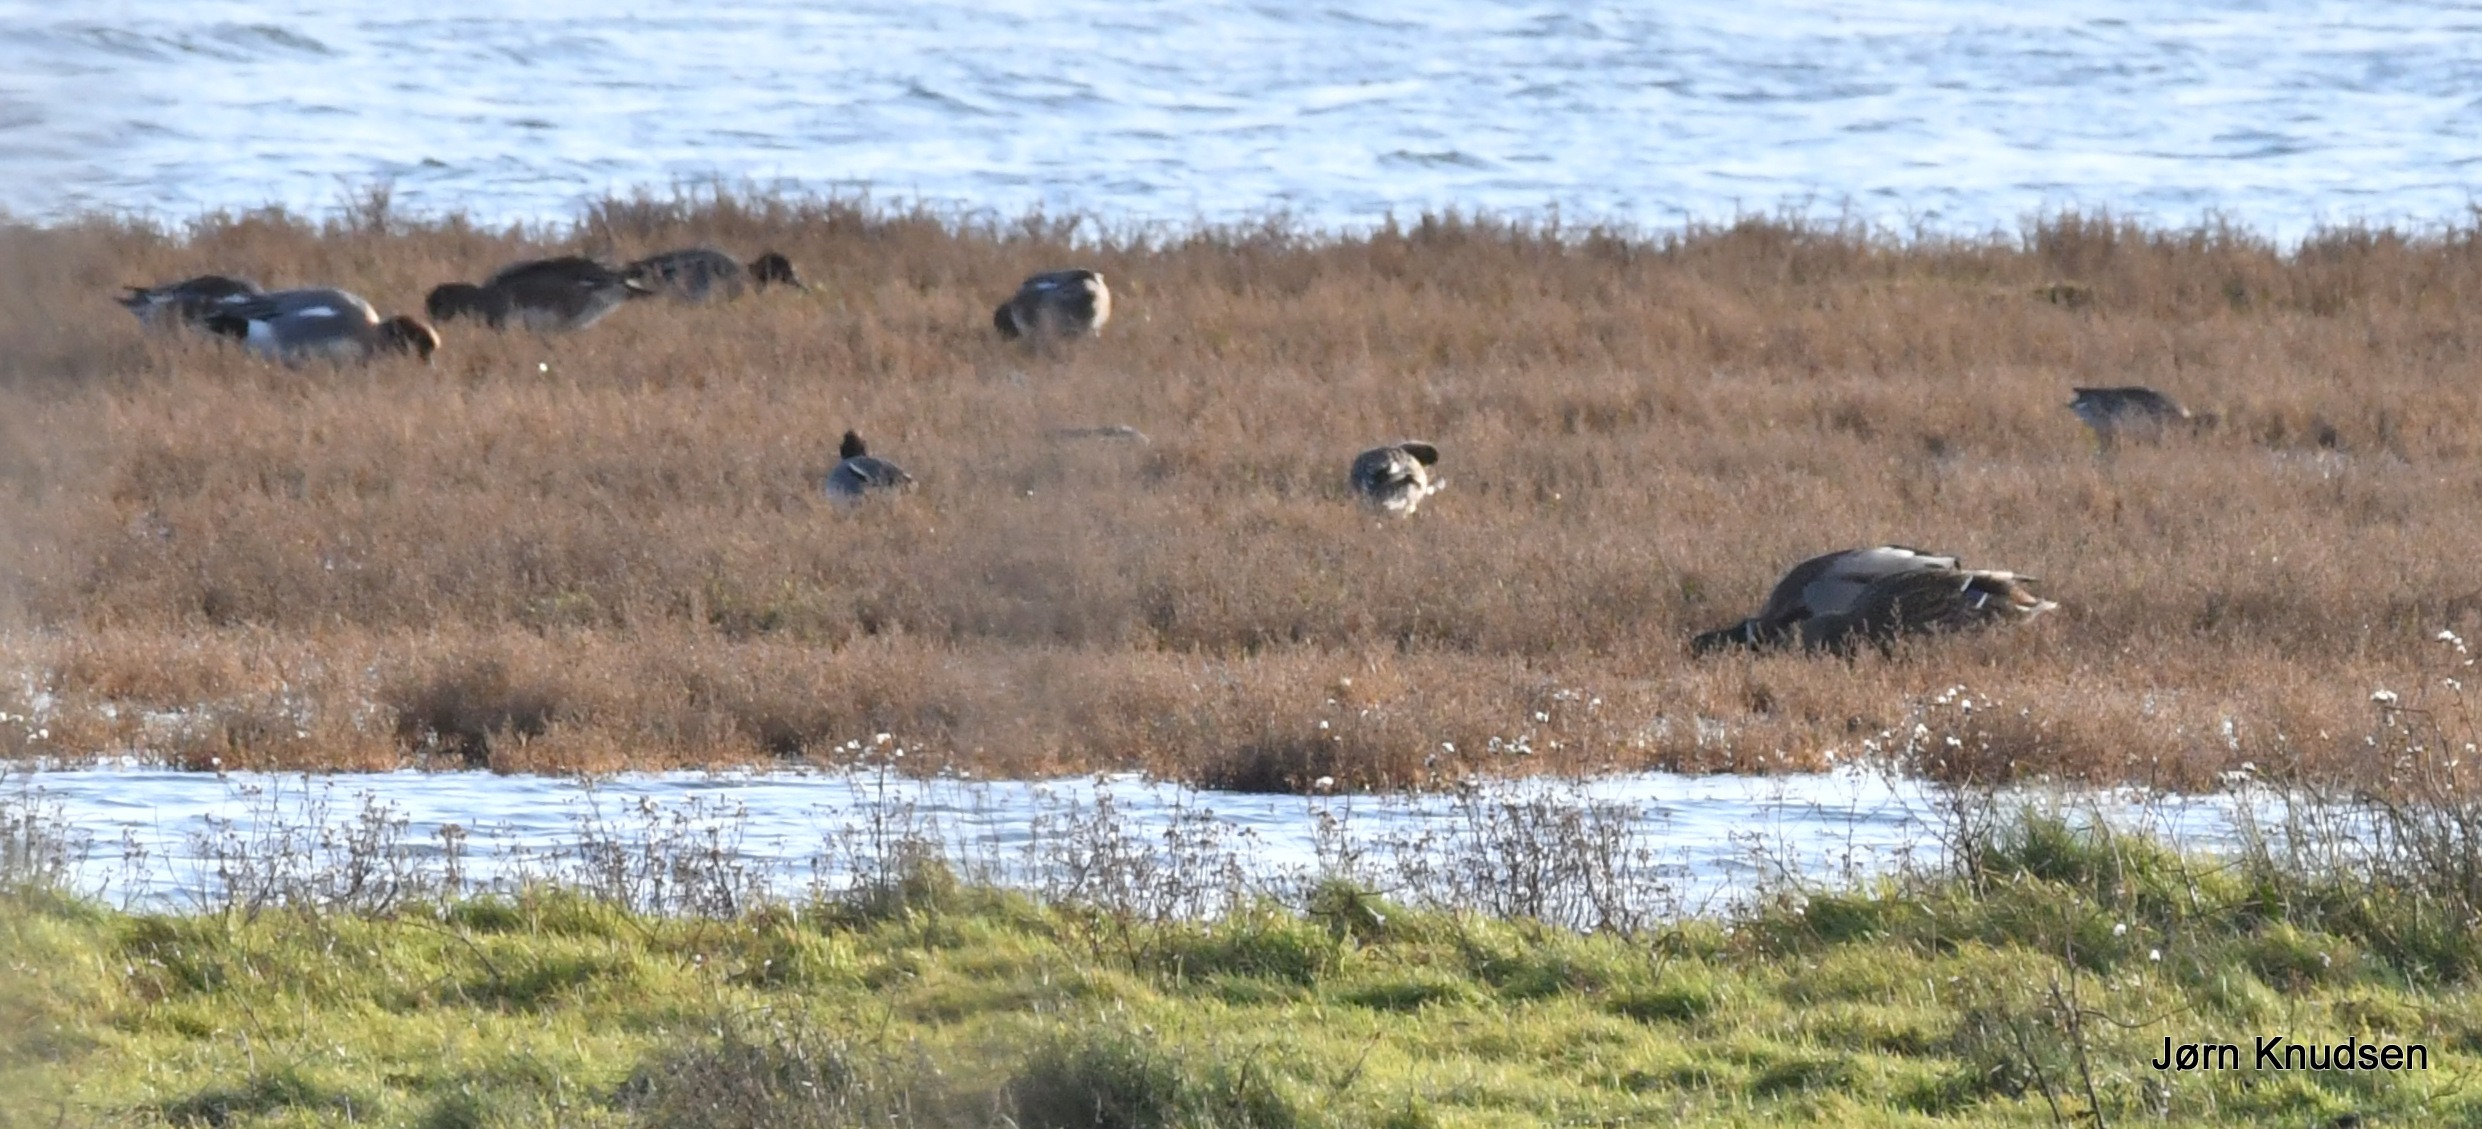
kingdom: Animalia
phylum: Chordata
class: Aves
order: Anseriformes
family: Anatidae
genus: Mareca
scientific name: Mareca penelope
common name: Pibeand
